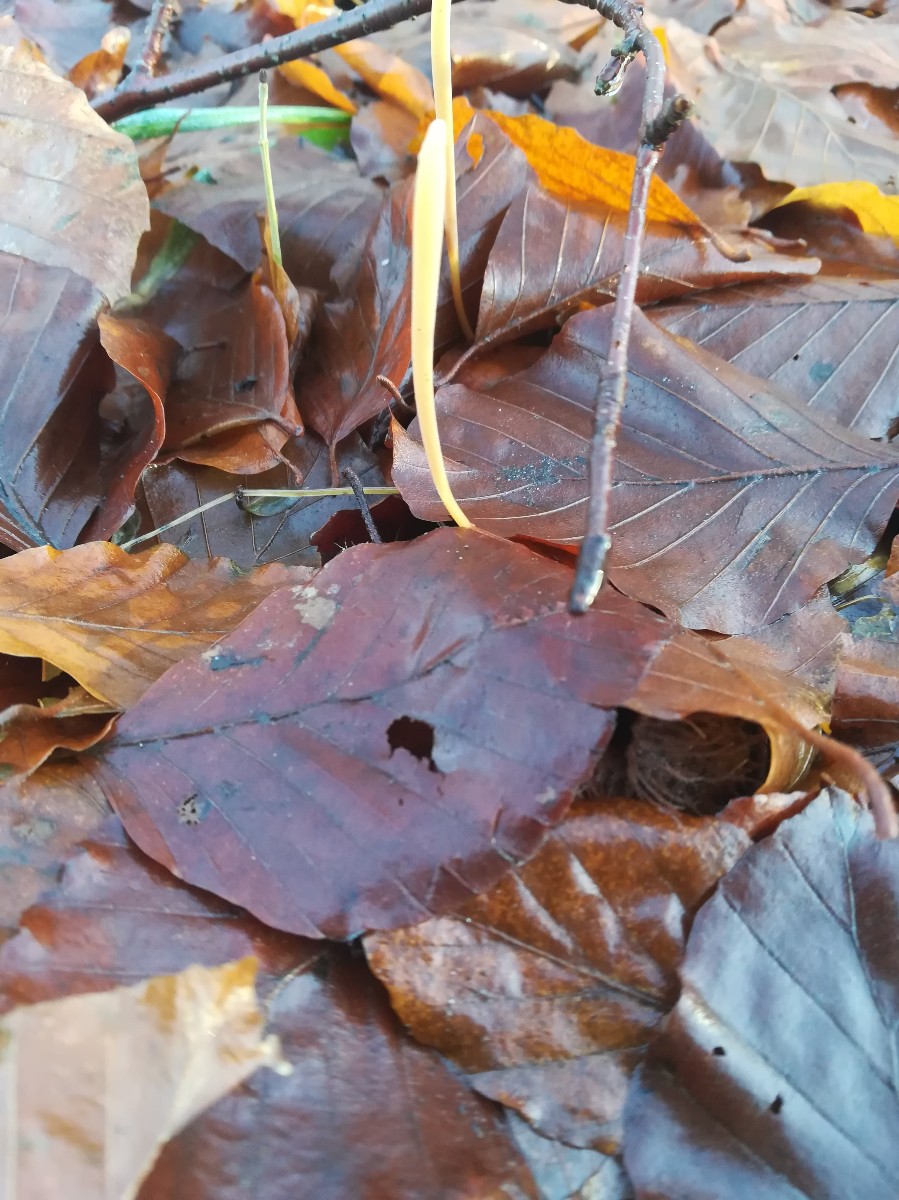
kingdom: Fungi
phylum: Basidiomycota
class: Agaricomycetes
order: Agaricales
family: Typhulaceae
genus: Typhula
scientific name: Typhula fistulosa
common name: pibet rørkølle
